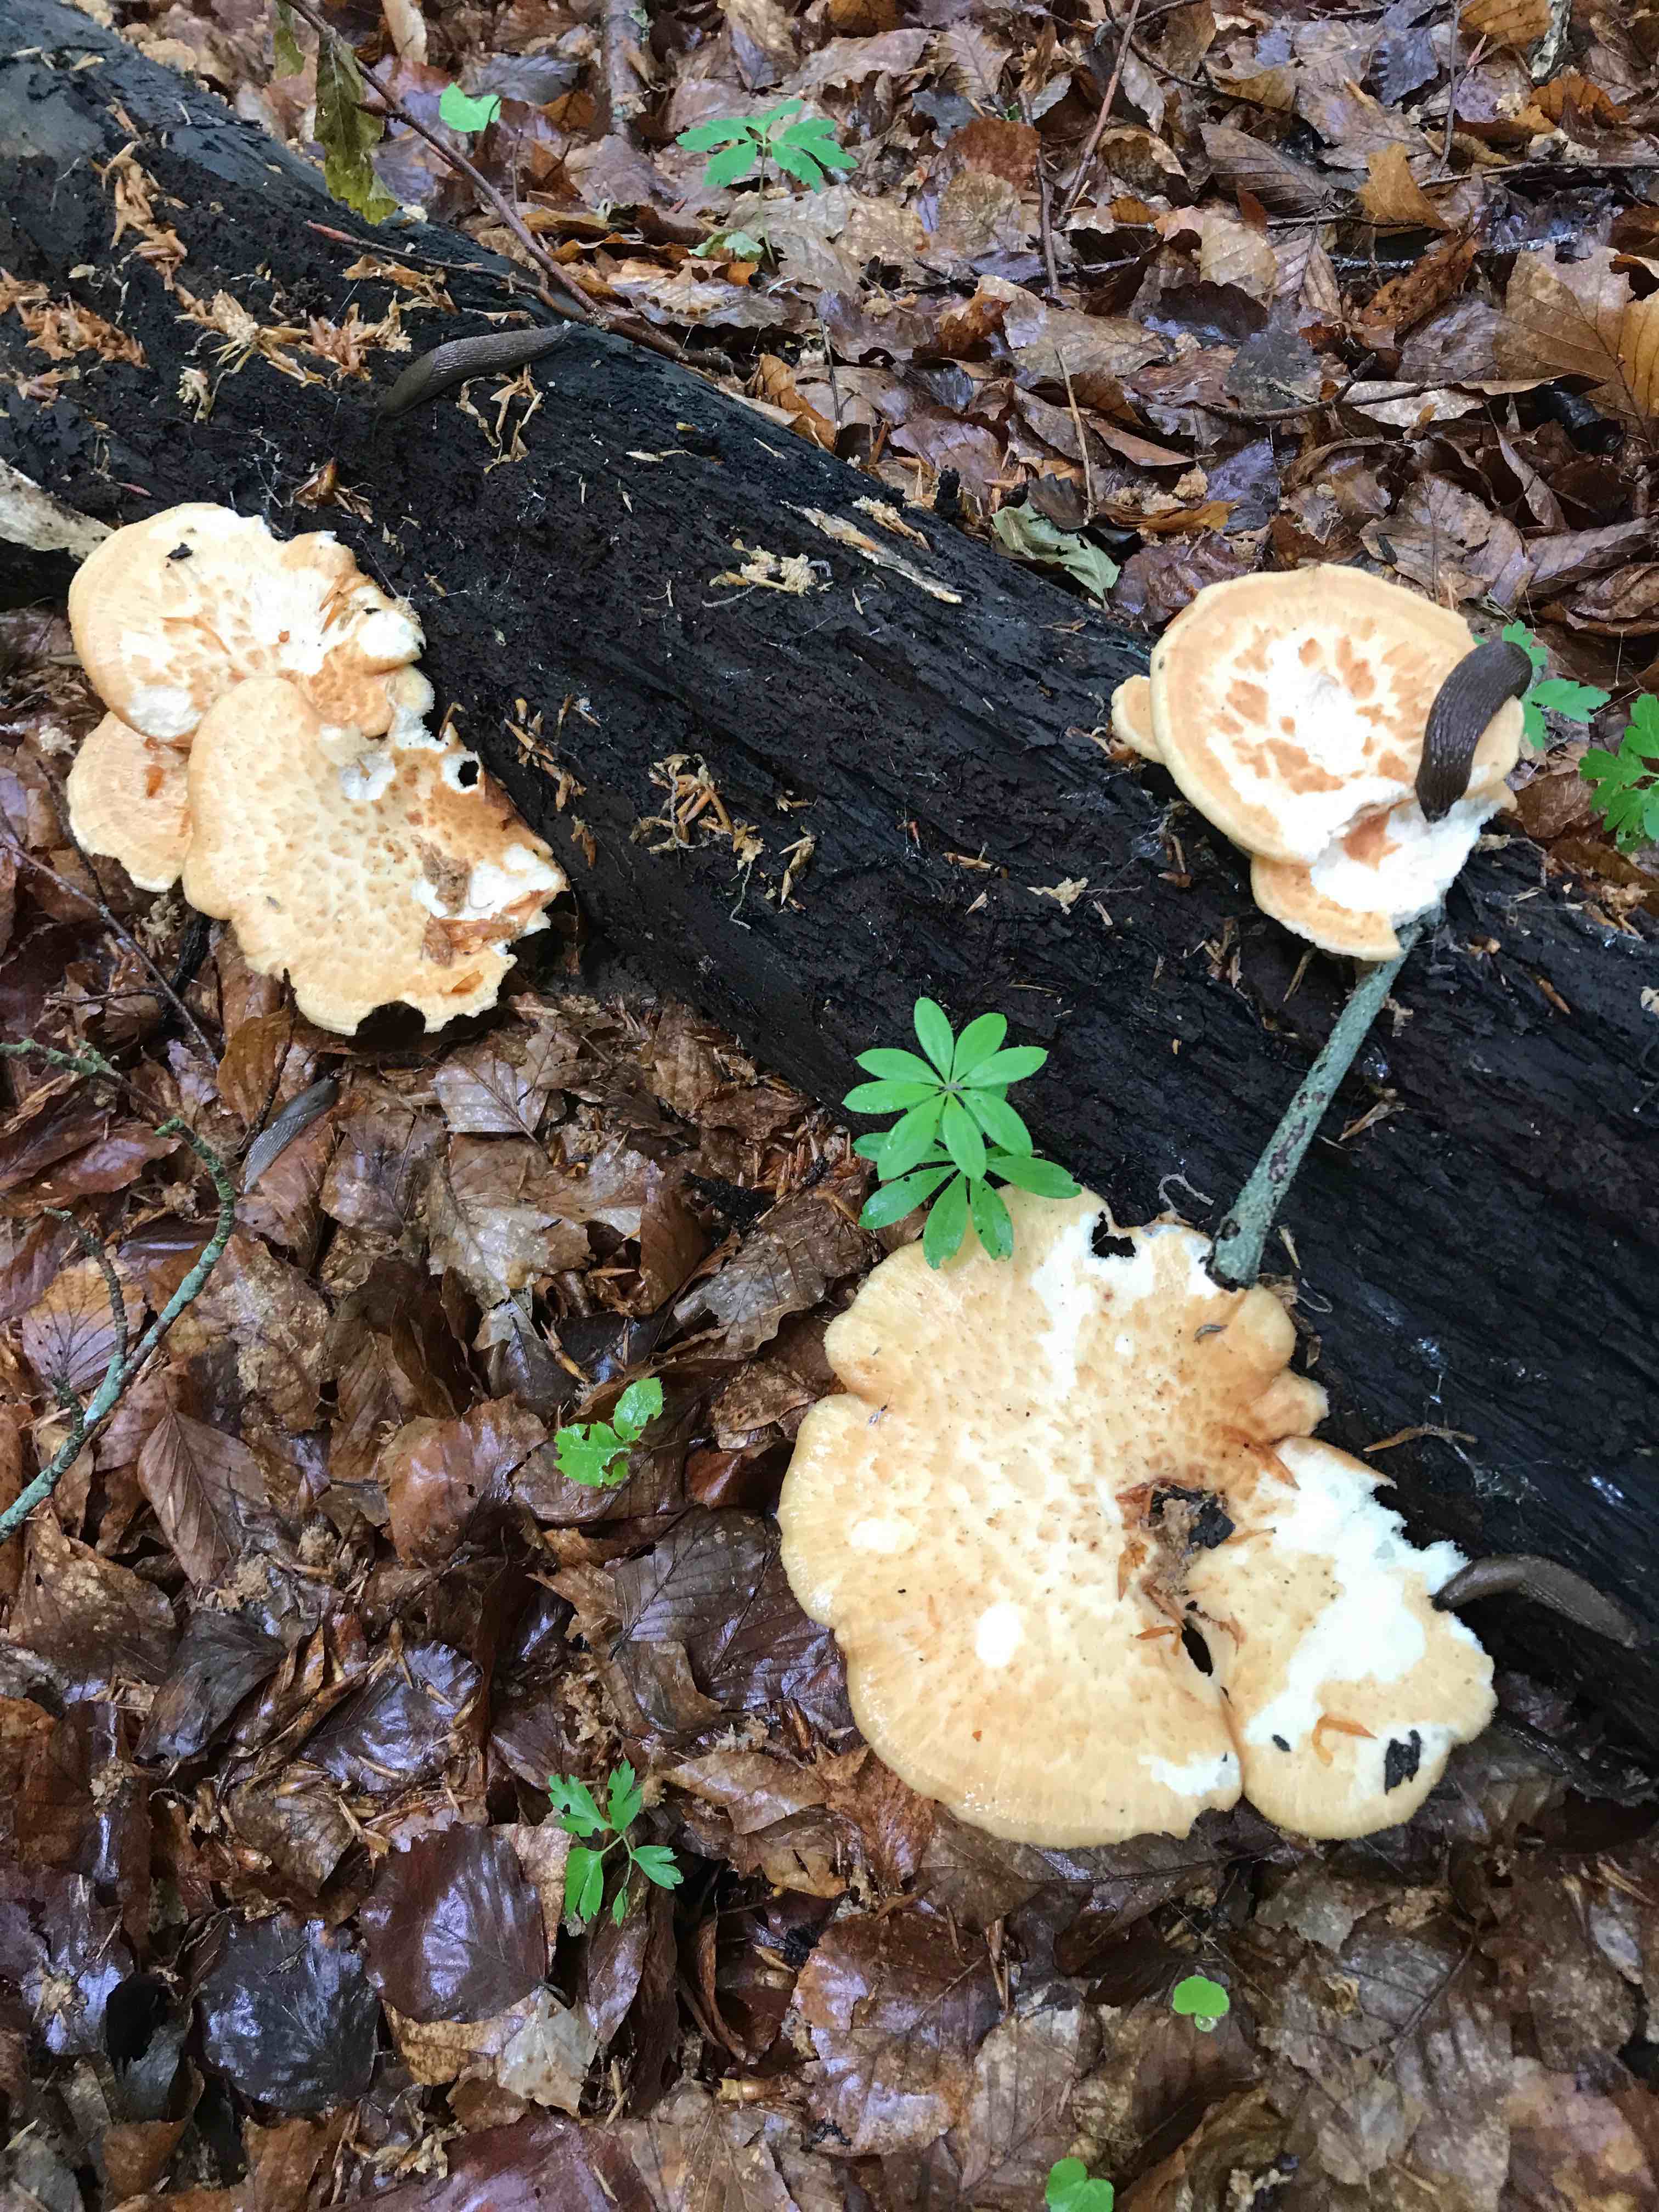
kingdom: Fungi
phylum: Basidiomycota
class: Agaricomycetes
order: Polyporales
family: Polyporaceae
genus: Polyporus
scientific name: Polyporus tuberaster
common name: knoldet stilkporesvamp
